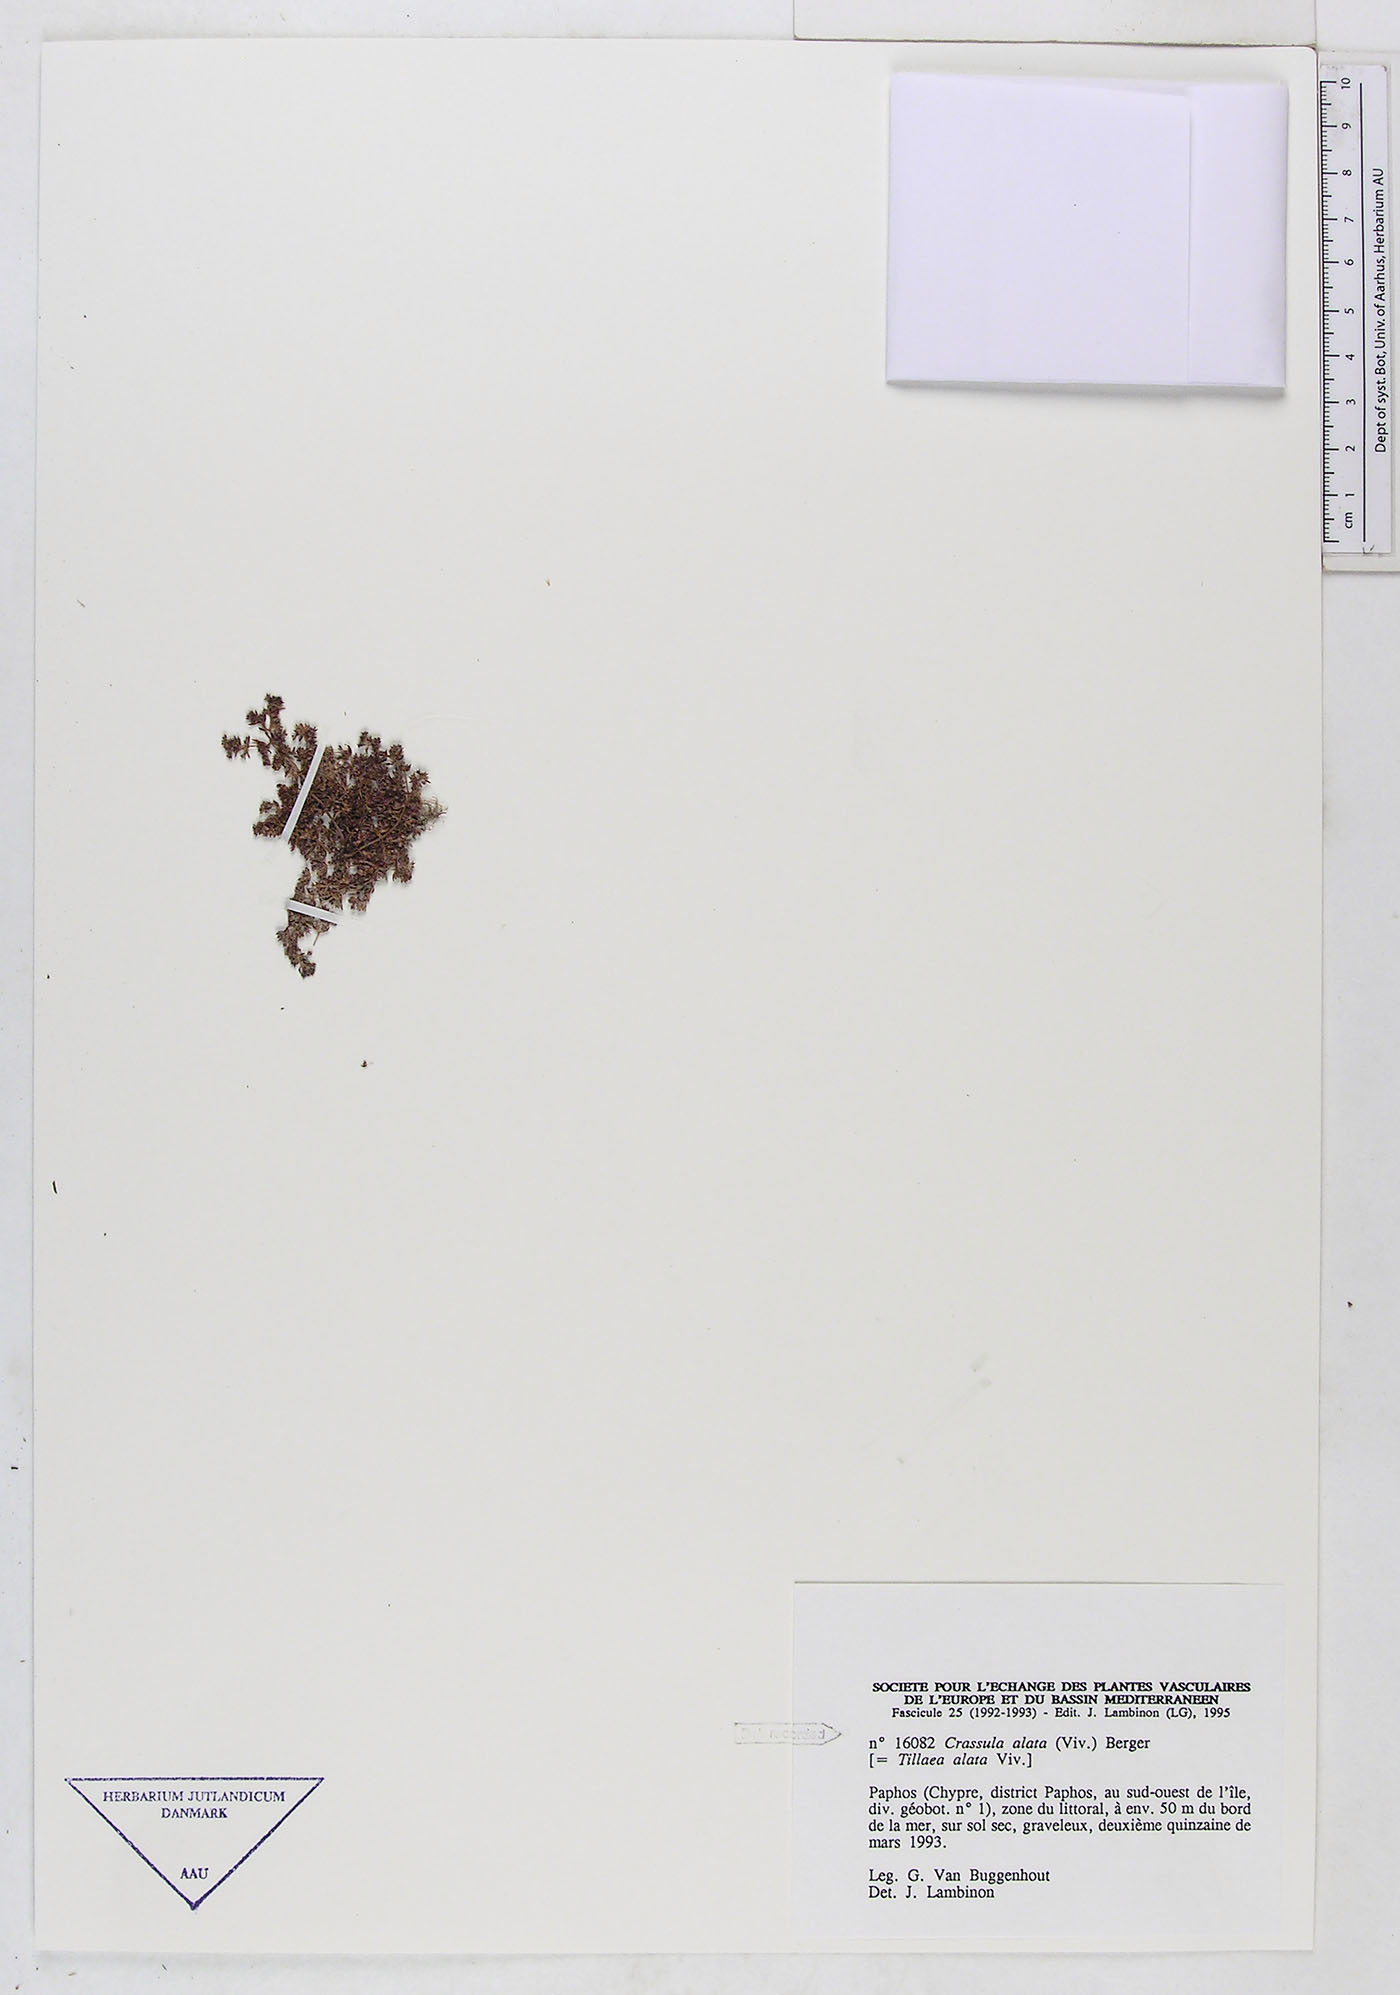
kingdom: Plantae
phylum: Tracheophyta
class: Magnoliopsida
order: Saxifragales
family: Crassulaceae
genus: Crassula
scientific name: Crassula alata
